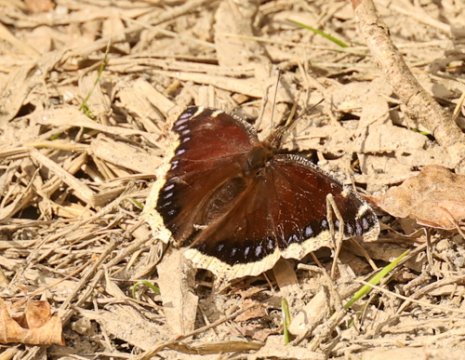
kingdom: Animalia
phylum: Arthropoda
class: Insecta
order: Lepidoptera
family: Nymphalidae
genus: Nymphalis
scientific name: Nymphalis antiopa
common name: Mourning Cloak
